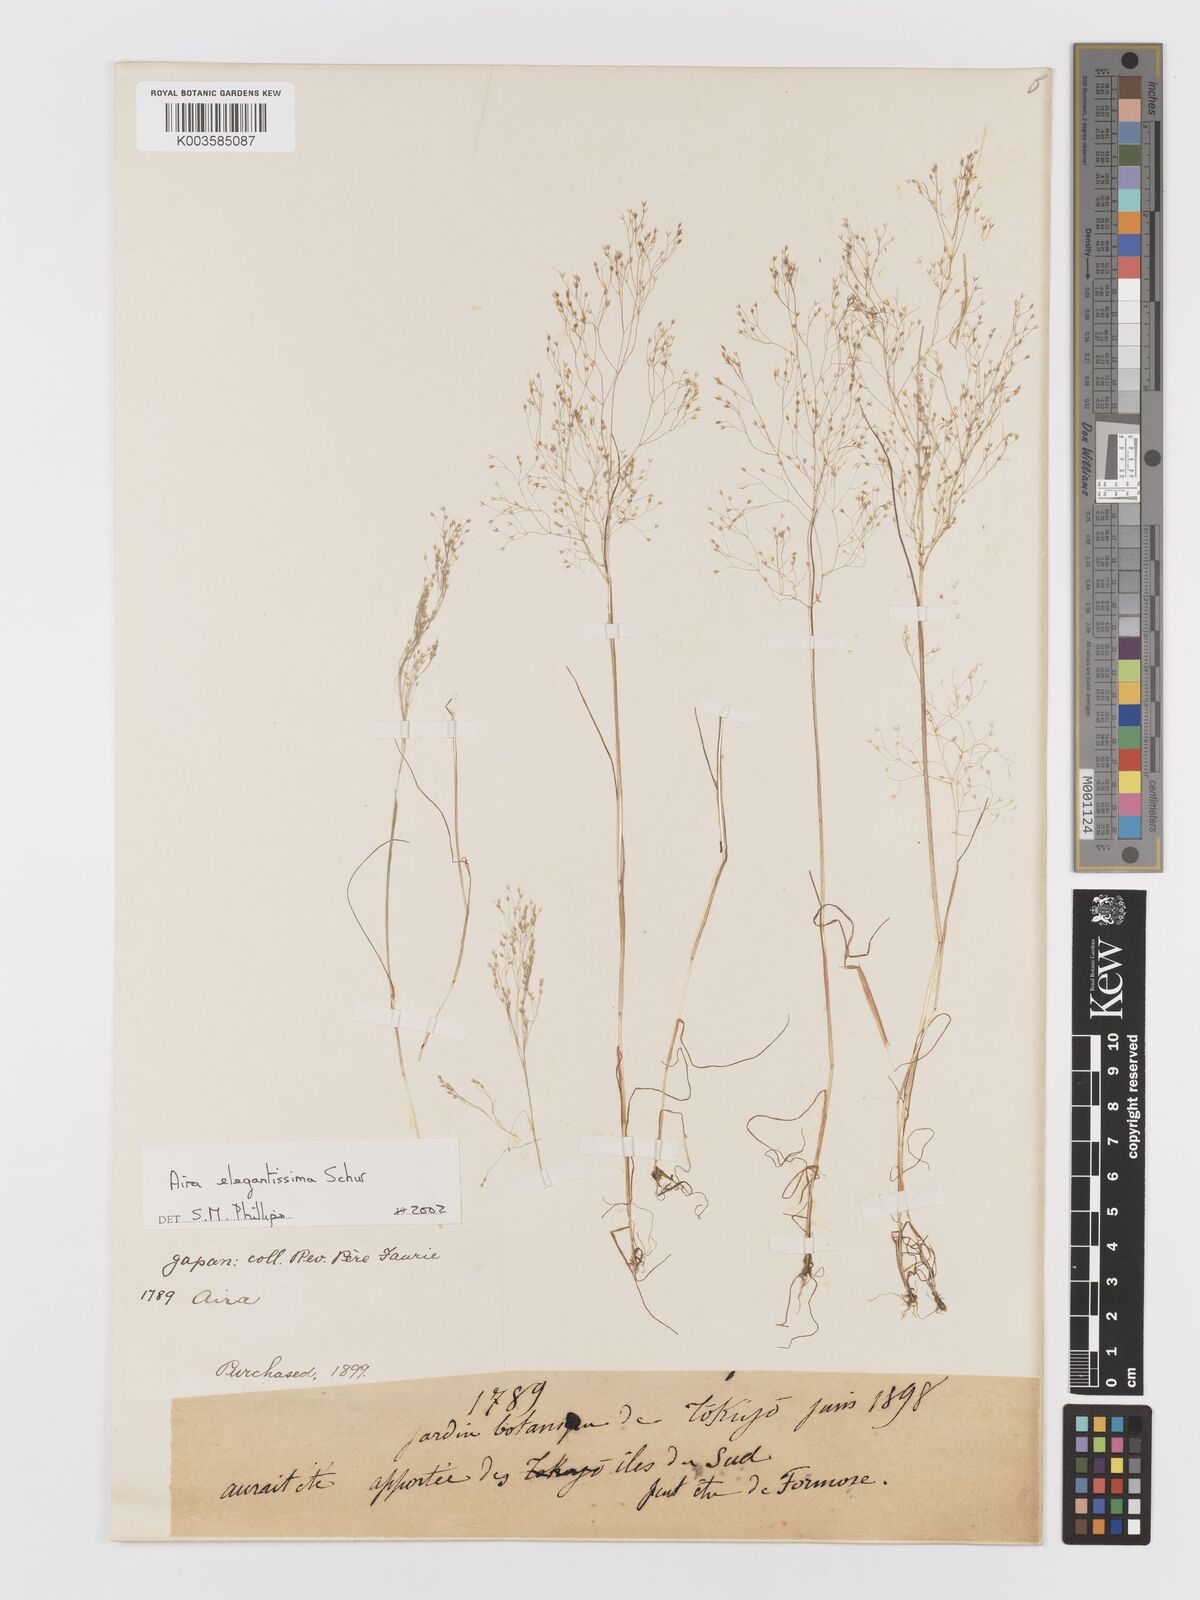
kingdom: Plantae
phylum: Tracheophyta
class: Liliopsida
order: Poales
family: Poaceae
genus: Aira
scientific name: Aira
